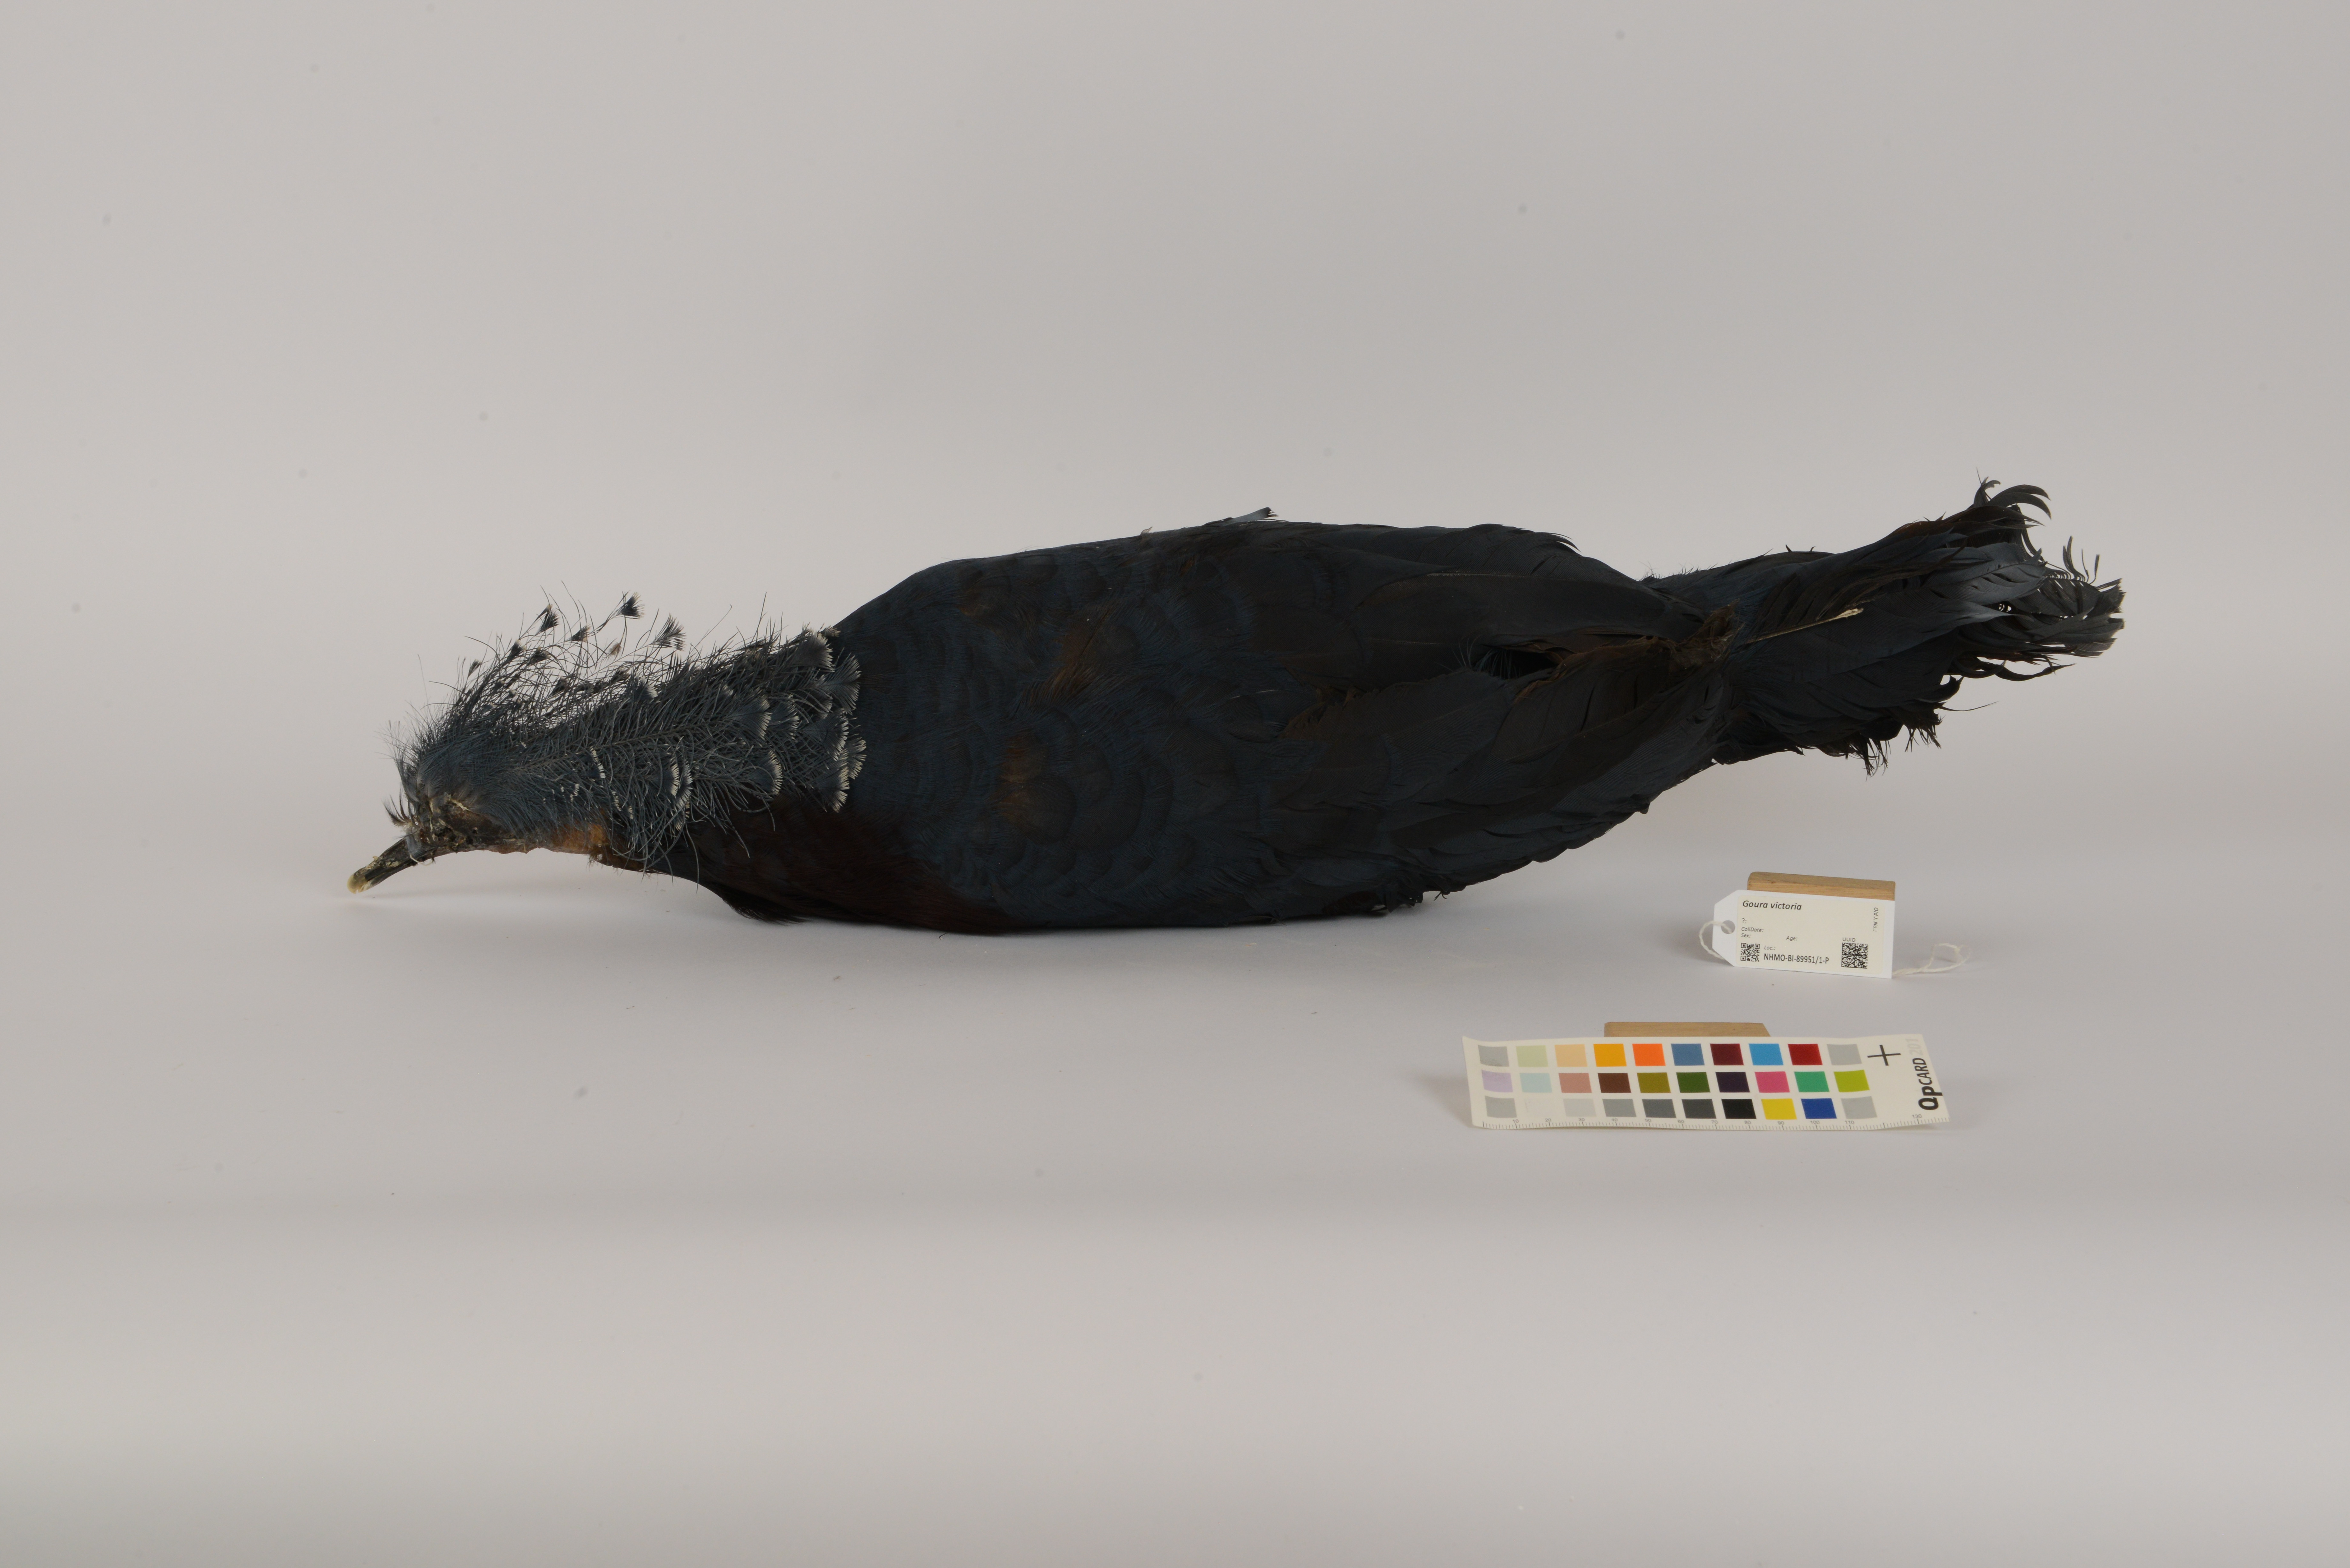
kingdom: Animalia
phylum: Chordata
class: Aves
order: Columbiformes
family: Columbidae
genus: Goura
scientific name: Goura victoria
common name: Victoria crowned pigeon
